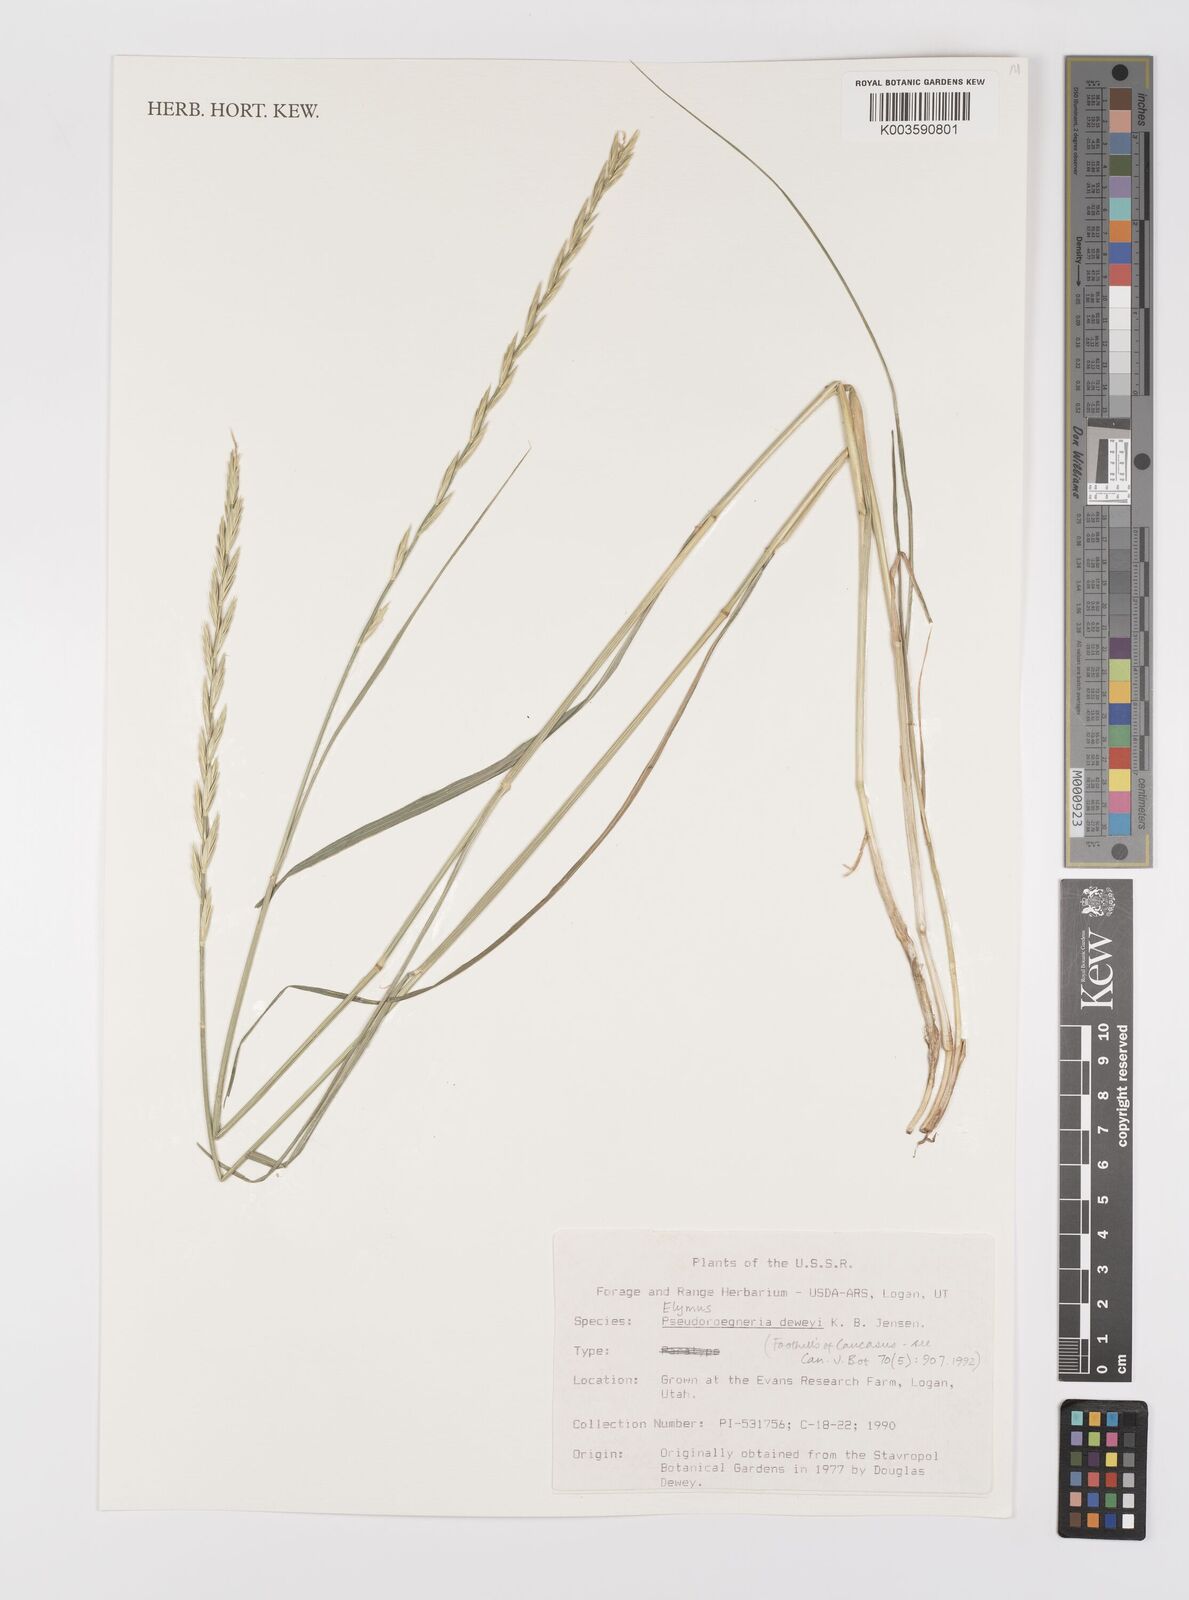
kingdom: Plantae
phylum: Tracheophyta
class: Liliopsida
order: Poales
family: Poaceae
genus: Elymus
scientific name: Elymus
